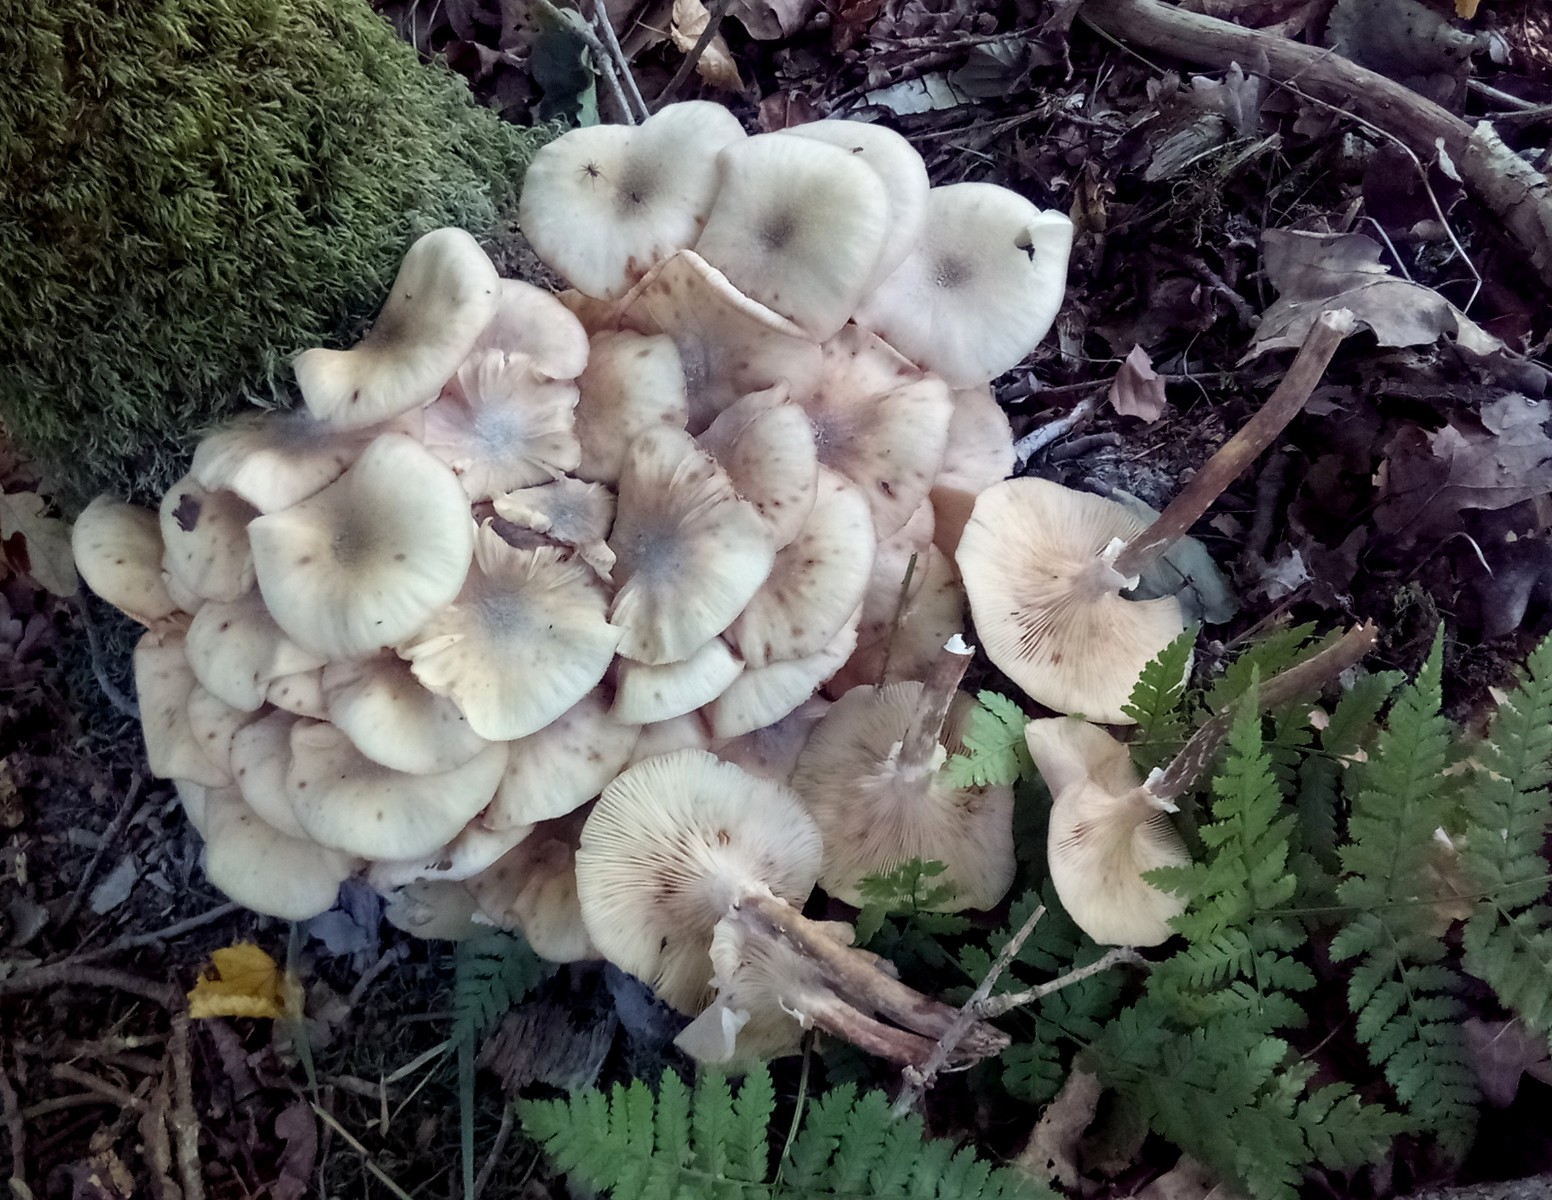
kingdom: Fungi
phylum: Basidiomycota
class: Agaricomycetes
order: Agaricales
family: Physalacriaceae
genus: Armillaria
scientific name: Armillaria borealis
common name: nordlig honningsvamp
